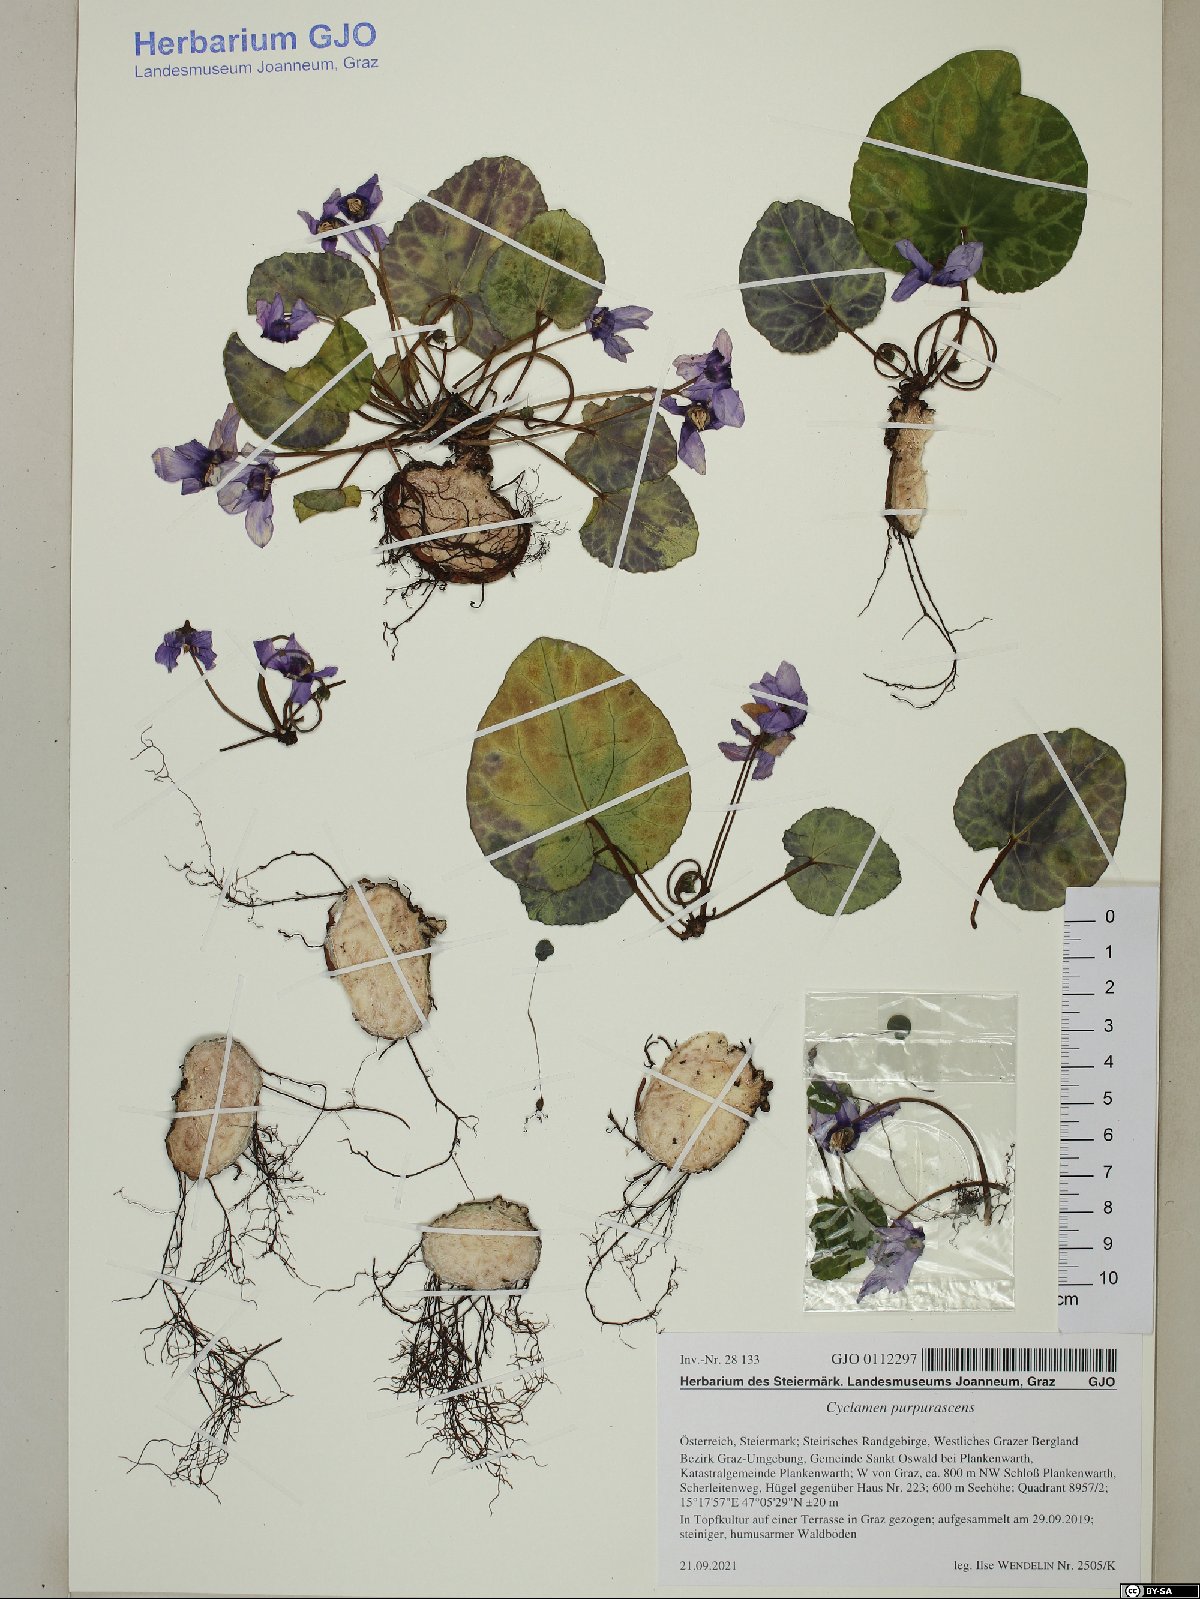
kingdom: Plantae
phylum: Tracheophyta
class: Magnoliopsida
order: Ericales
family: Primulaceae
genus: Cyclamen
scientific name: Cyclamen purpurascens
